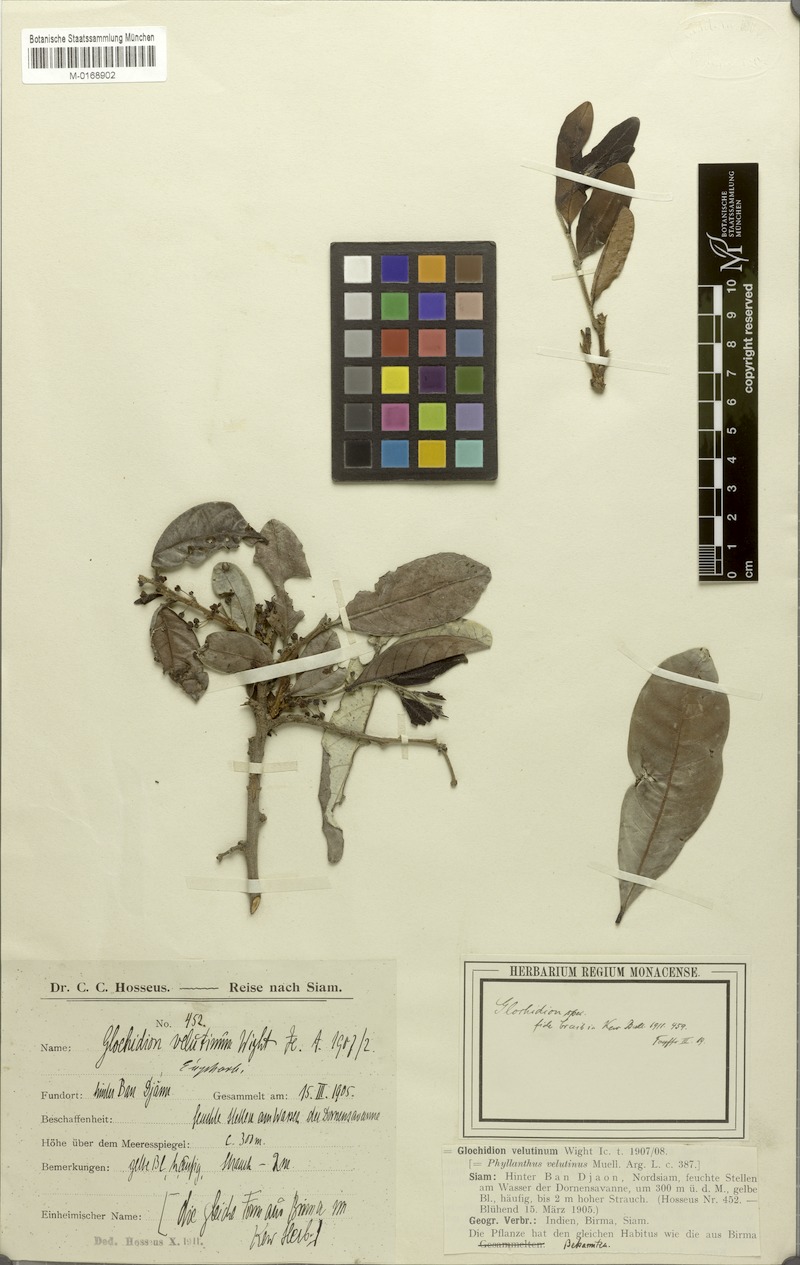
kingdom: Plantae
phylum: Tracheophyta
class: Magnoliopsida
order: Malpighiales
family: Phyllanthaceae
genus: Glochidion
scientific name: Glochidion heyneanum
